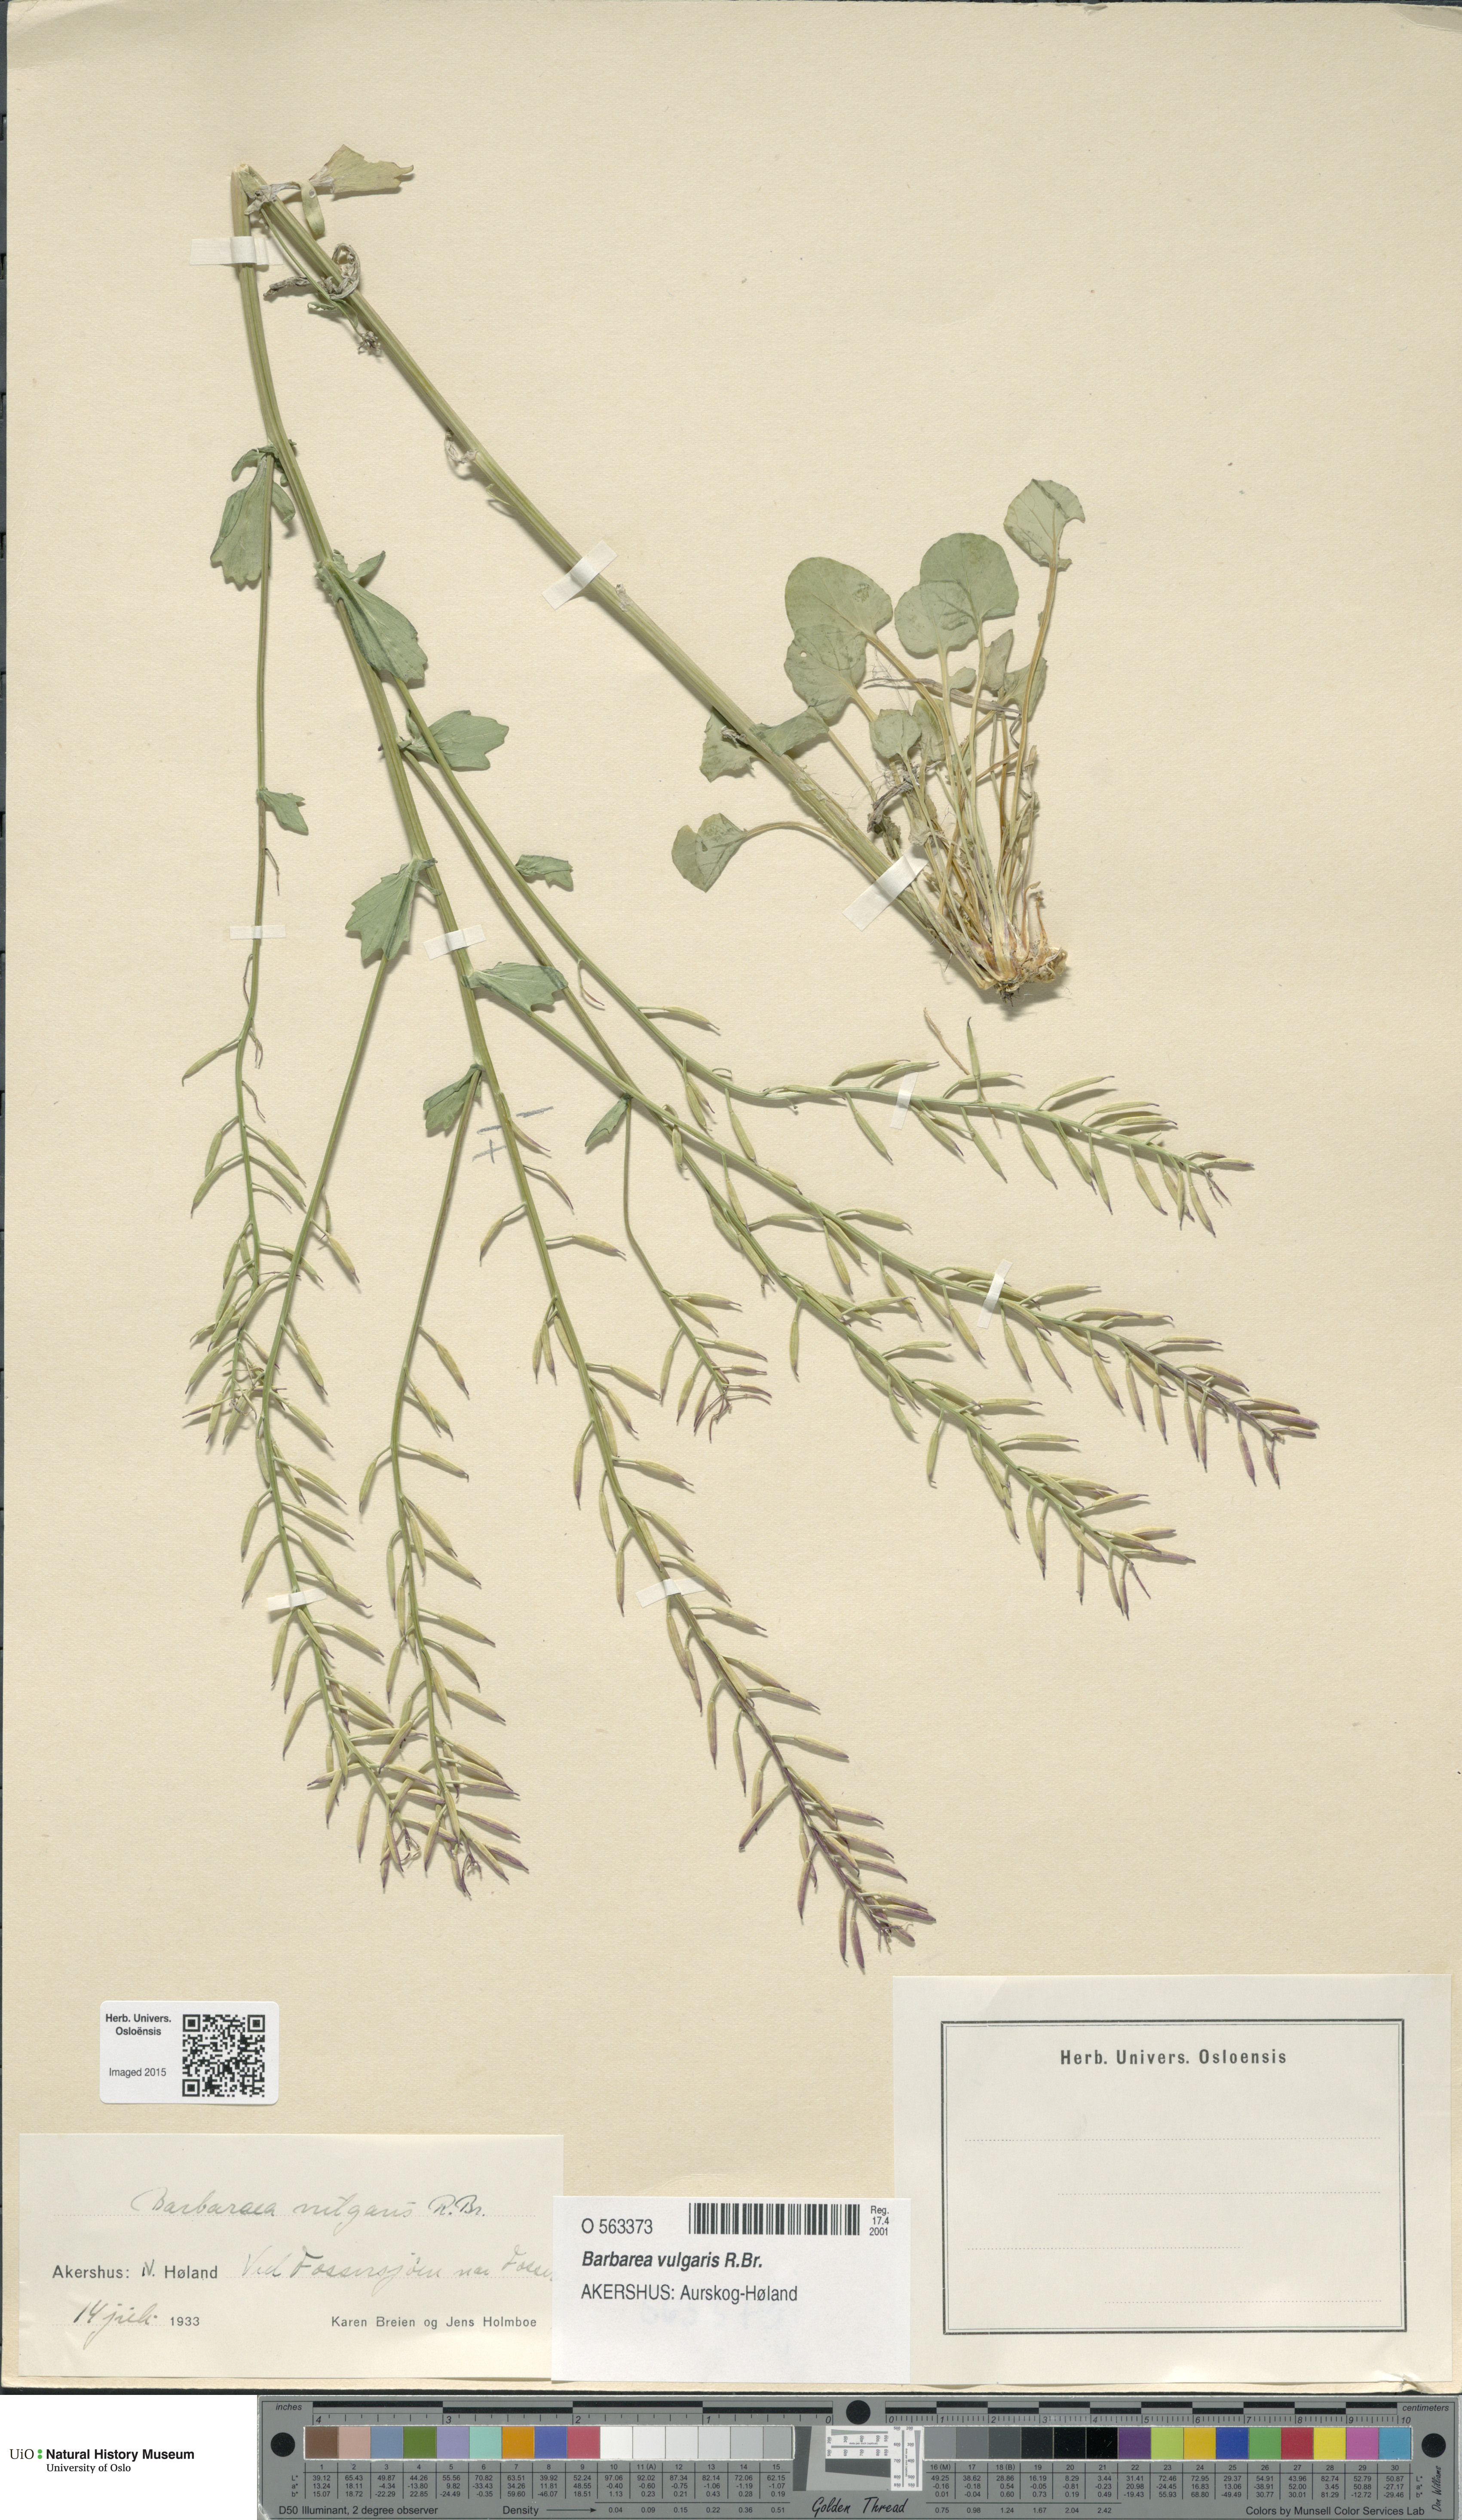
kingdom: Plantae
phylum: Tracheophyta
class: Magnoliopsida
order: Brassicales
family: Brassicaceae
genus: Barbarea
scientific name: Barbarea vulgaris
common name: Cressy-greens
